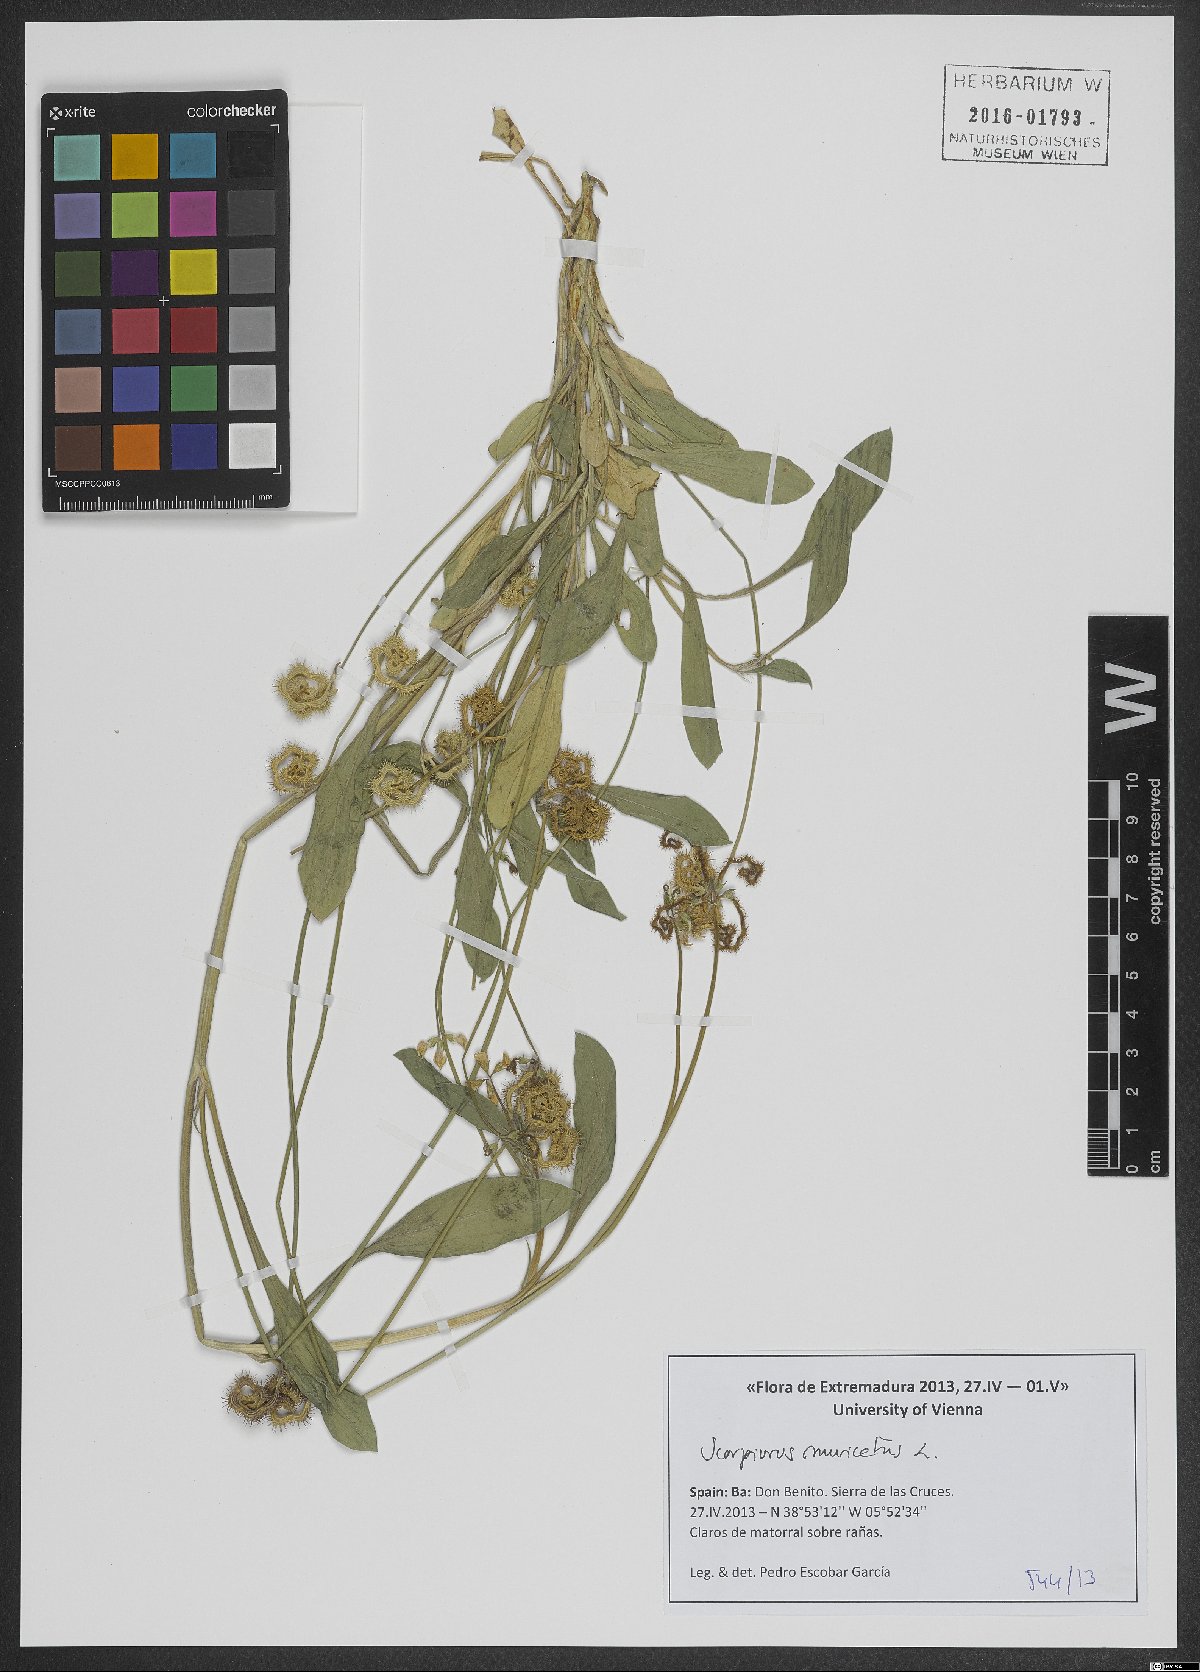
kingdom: Plantae
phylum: Tracheophyta
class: Magnoliopsida
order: Fabales
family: Fabaceae
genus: Scorpiurus
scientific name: Scorpiurus muricatus
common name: Caterpillar-plant
